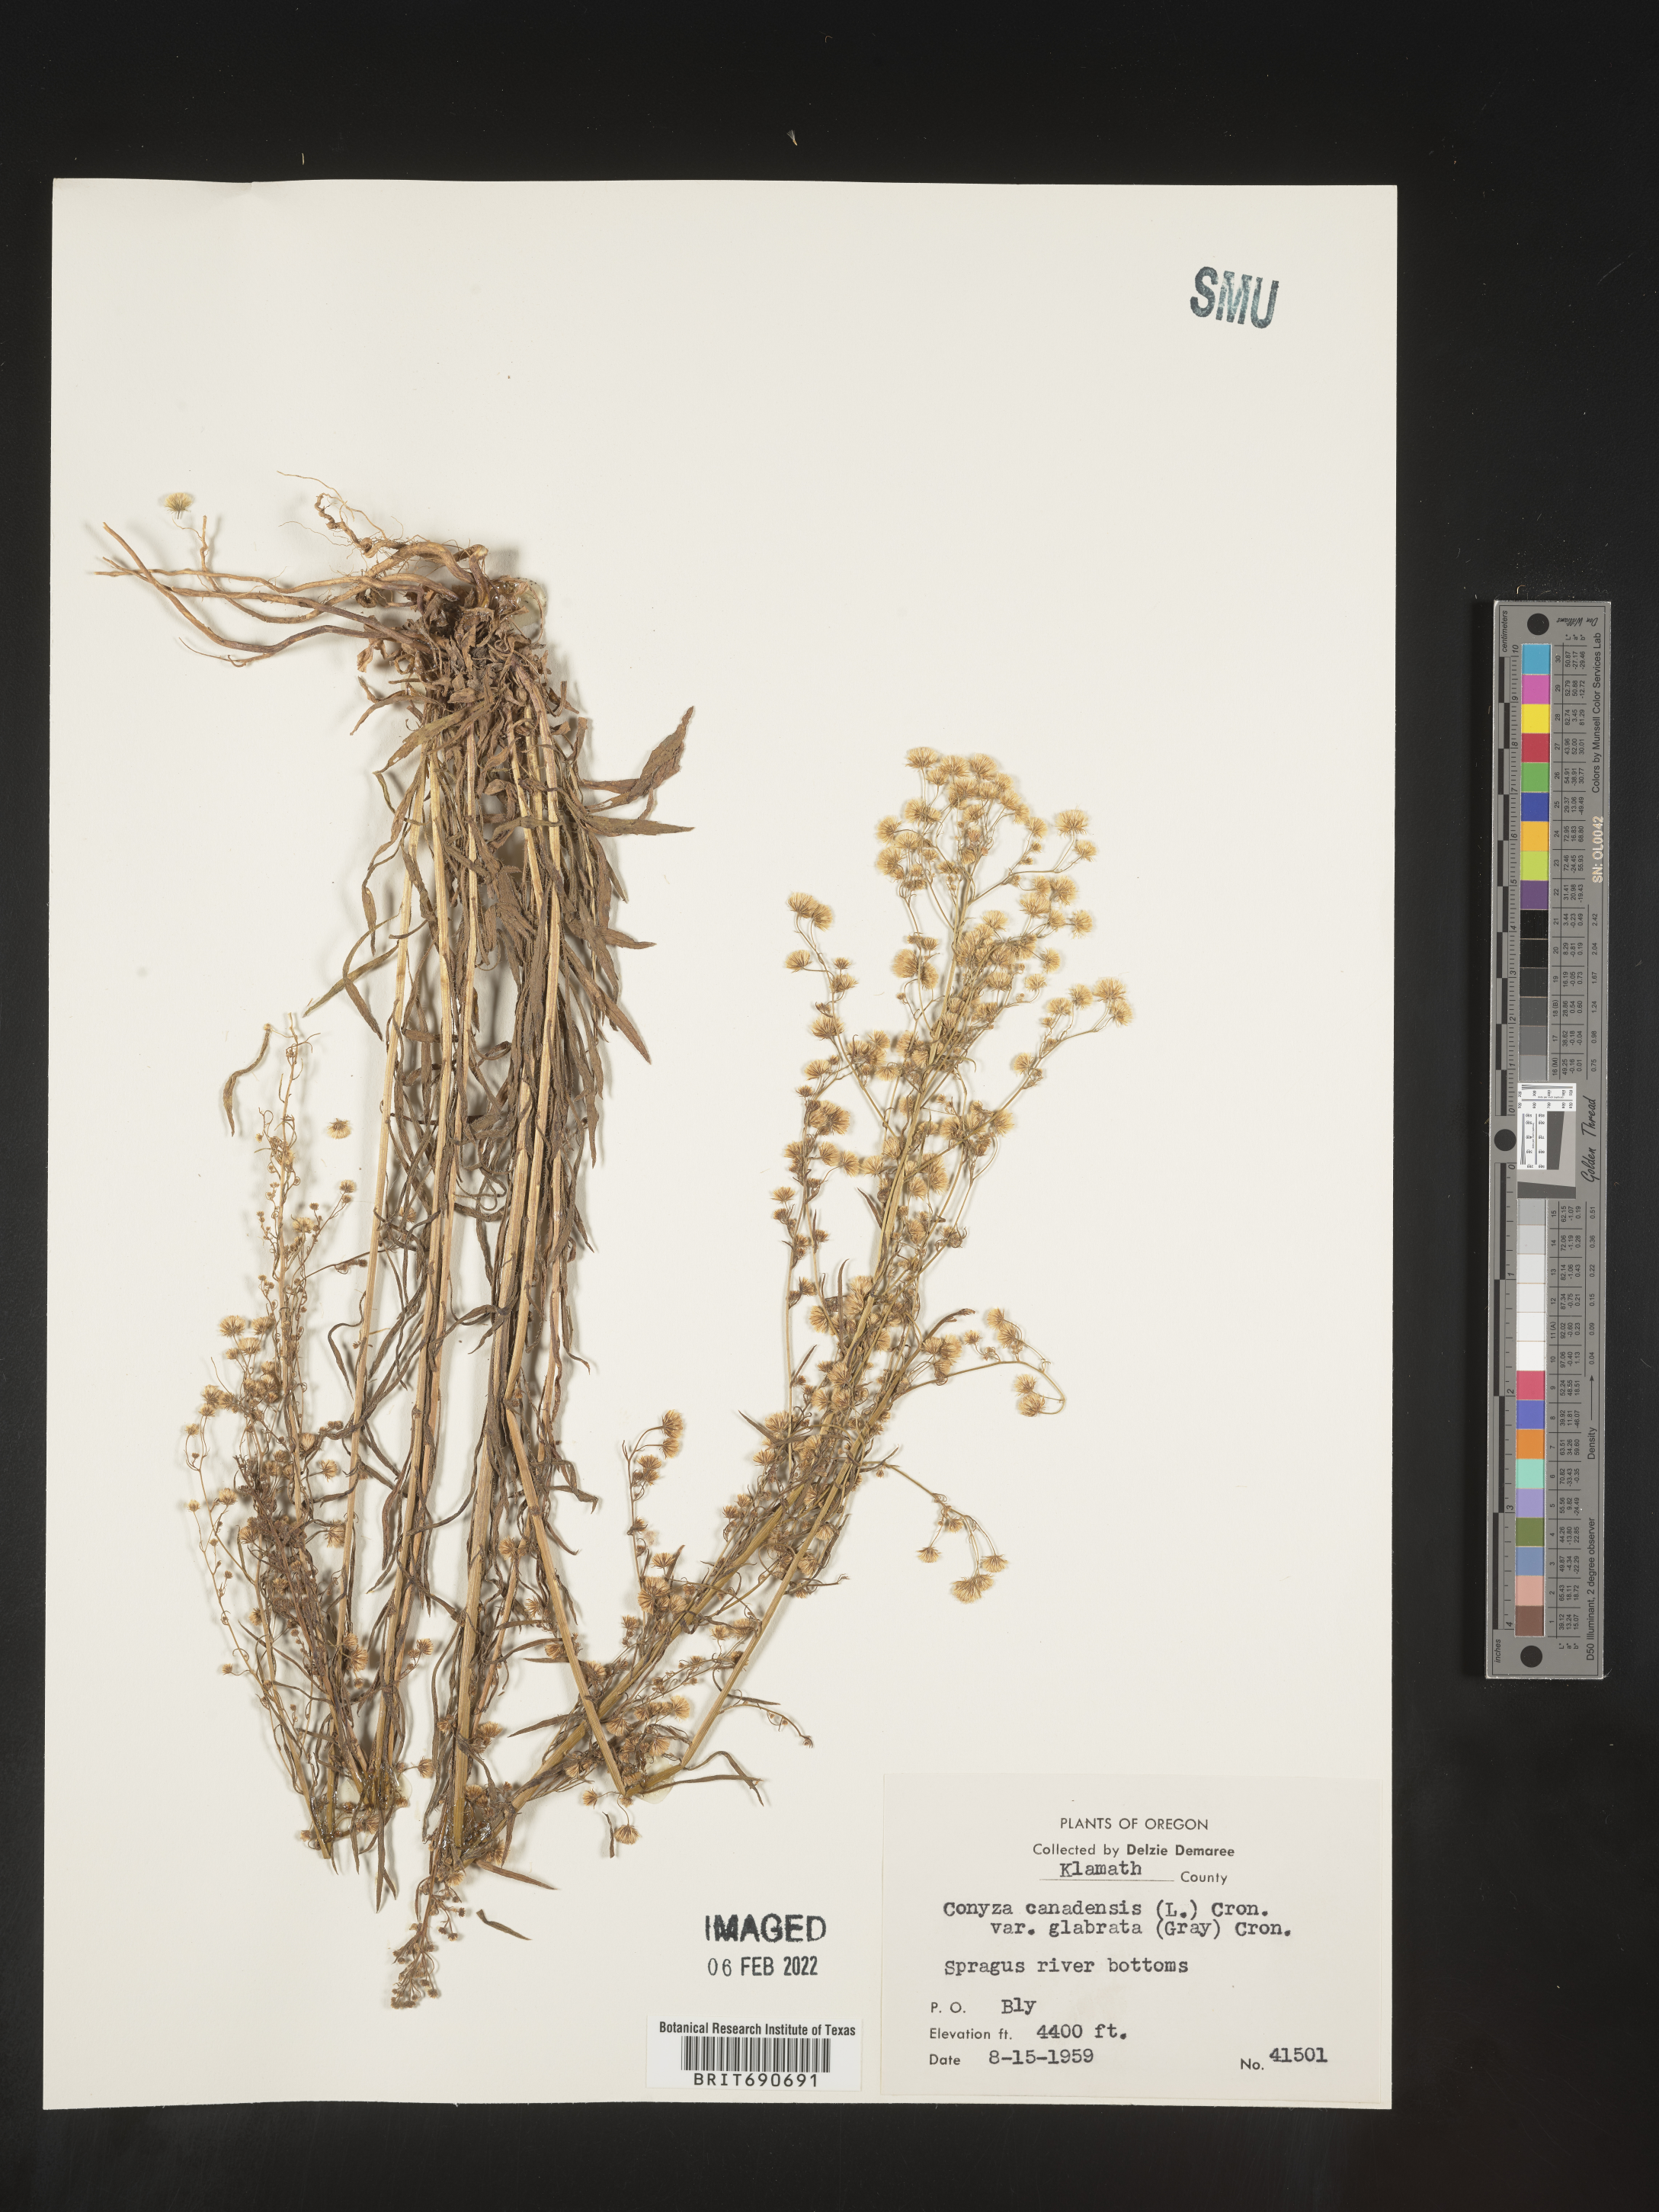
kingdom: Plantae
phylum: Tracheophyta
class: Magnoliopsida
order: Asterales
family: Asteraceae
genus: Erigeron
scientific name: Erigeron canadensis
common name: Canadian fleabane
